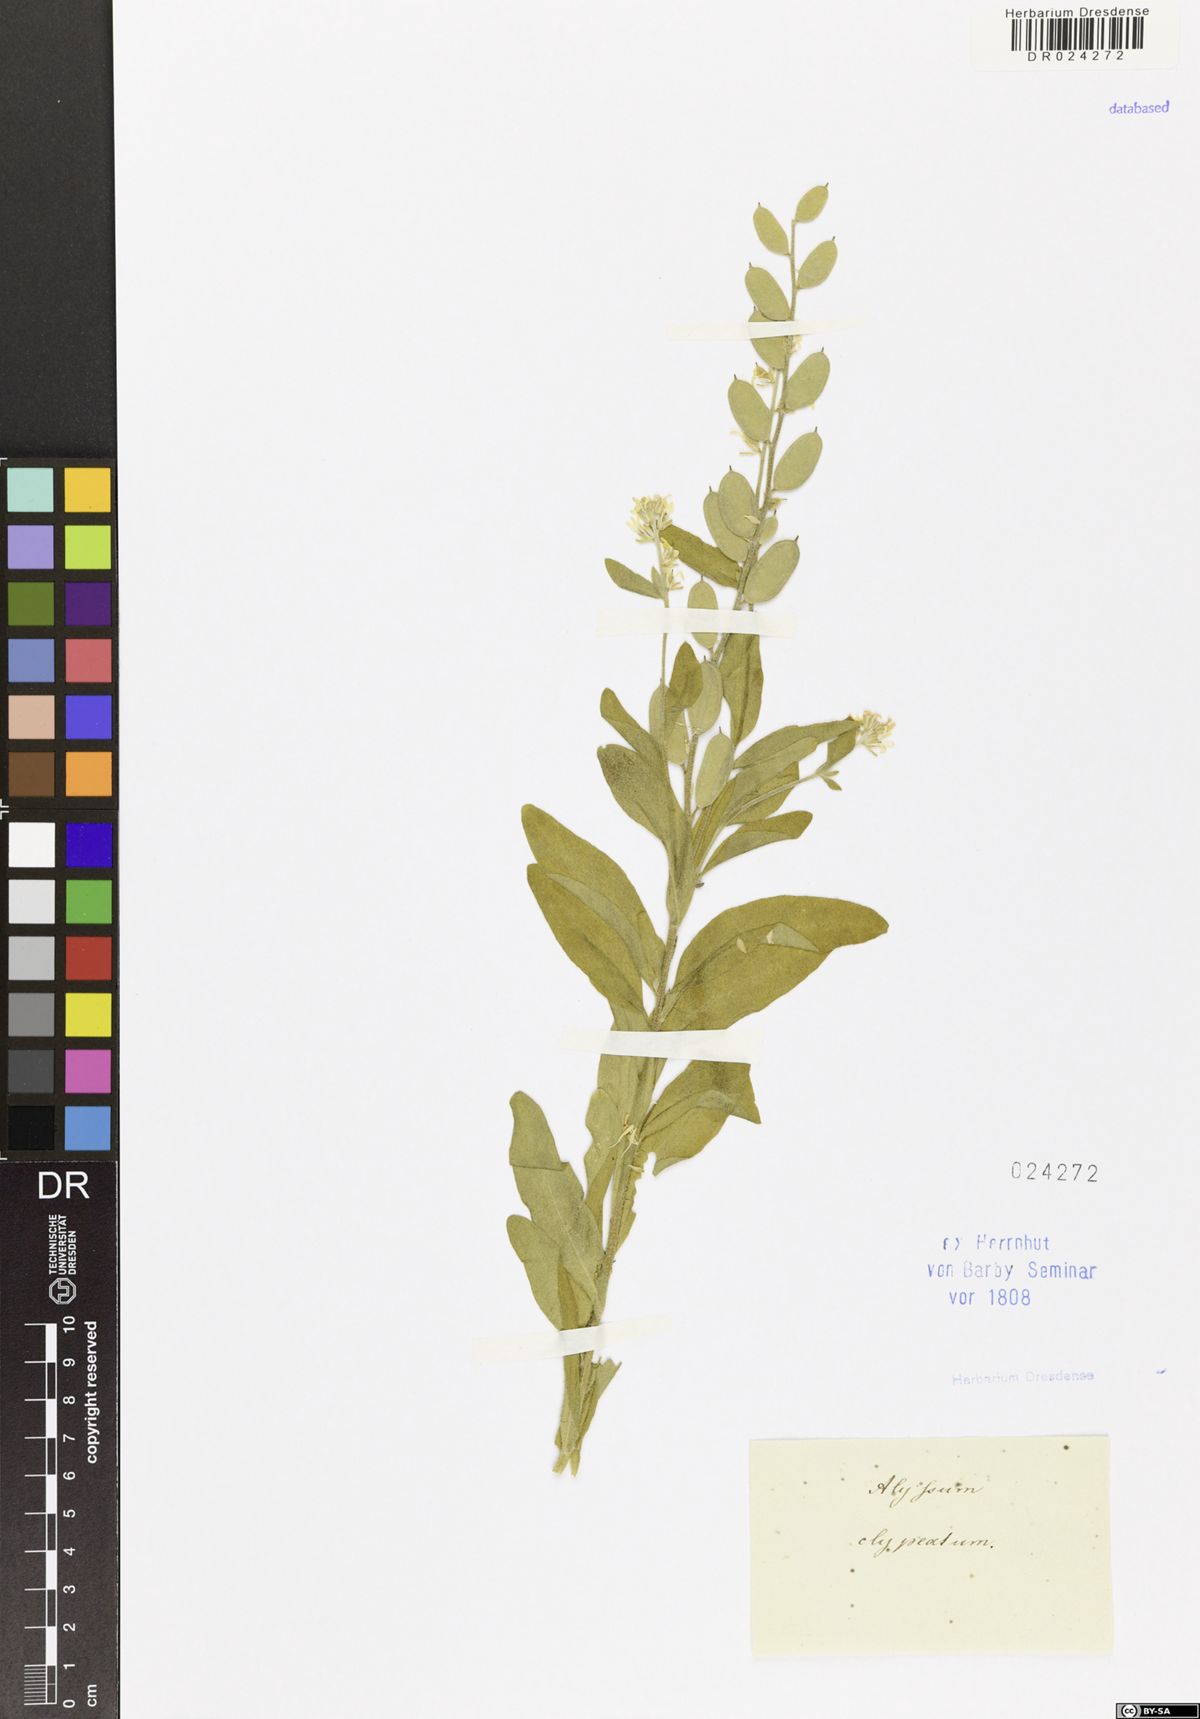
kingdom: Plantae
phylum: Tracheophyta
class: Magnoliopsida
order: Brassicales
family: Brassicaceae
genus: Fibigia
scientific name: Fibigia clypeata
